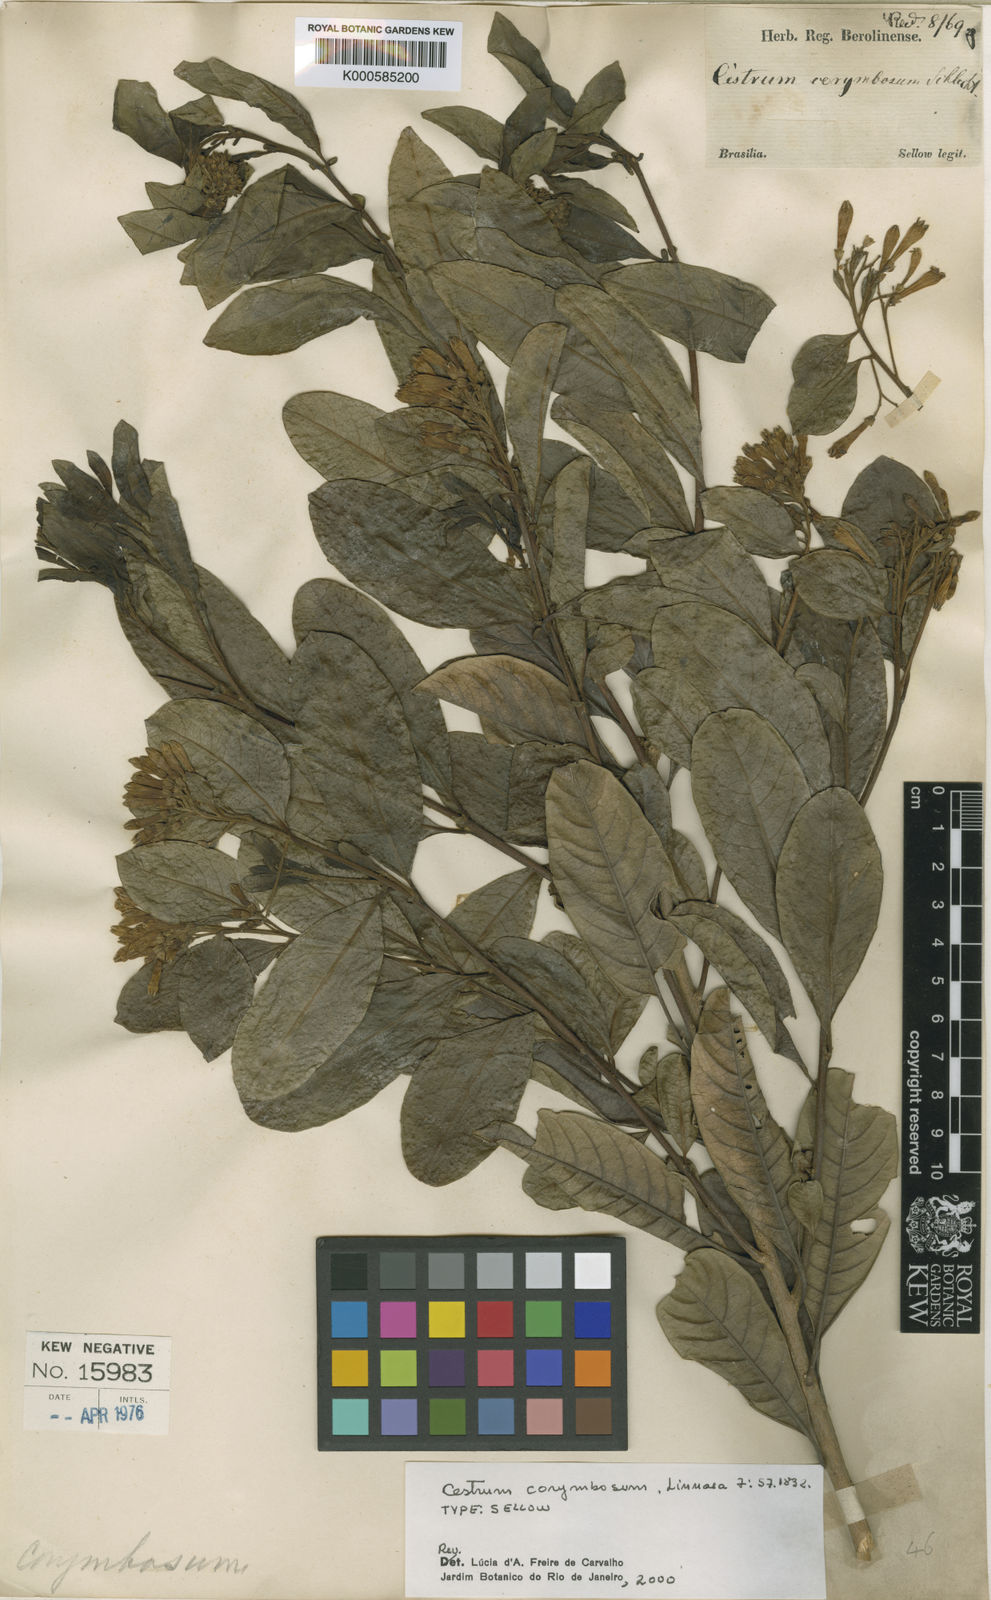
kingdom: Plantae
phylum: Tracheophyta
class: Magnoliopsida
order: Solanales
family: Solanaceae
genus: Cestrum
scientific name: Cestrum corymbosum
